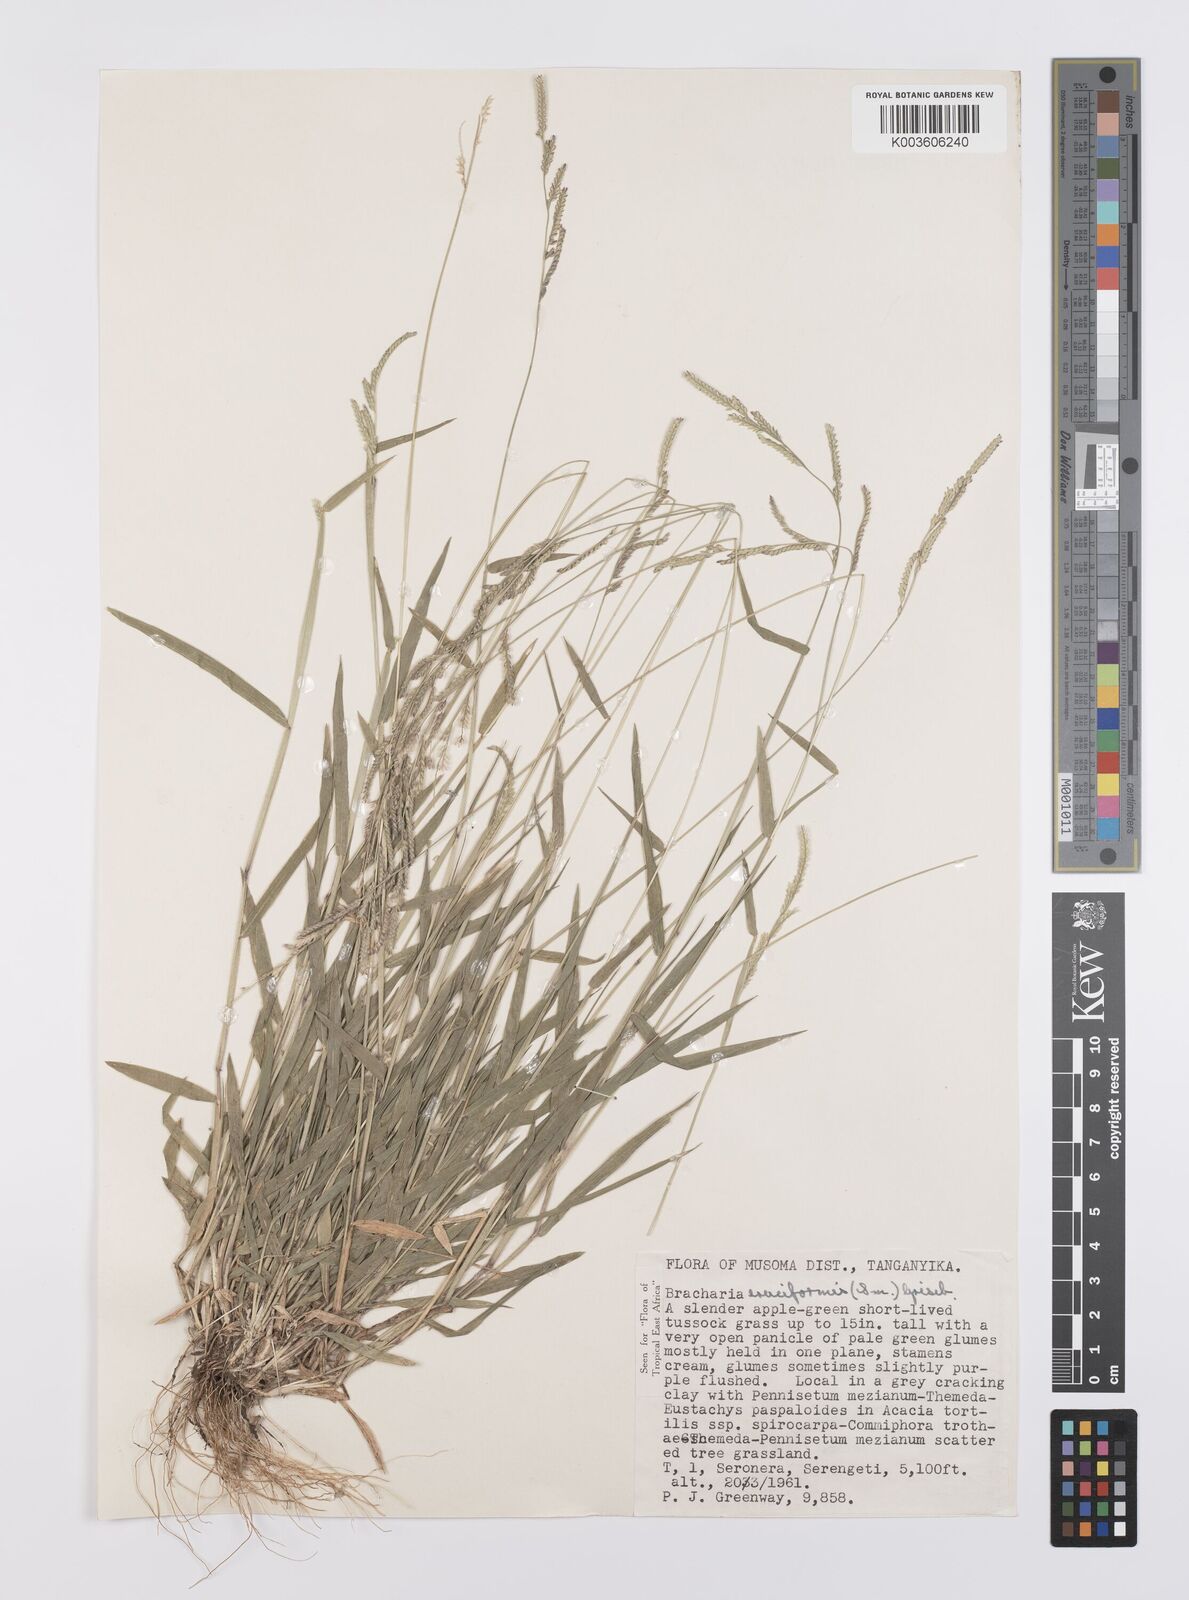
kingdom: Plantae
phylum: Tracheophyta
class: Liliopsida
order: Poales
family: Poaceae
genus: Moorochloa
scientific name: Moorochloa eruciformis
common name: Sweet signalgrass
